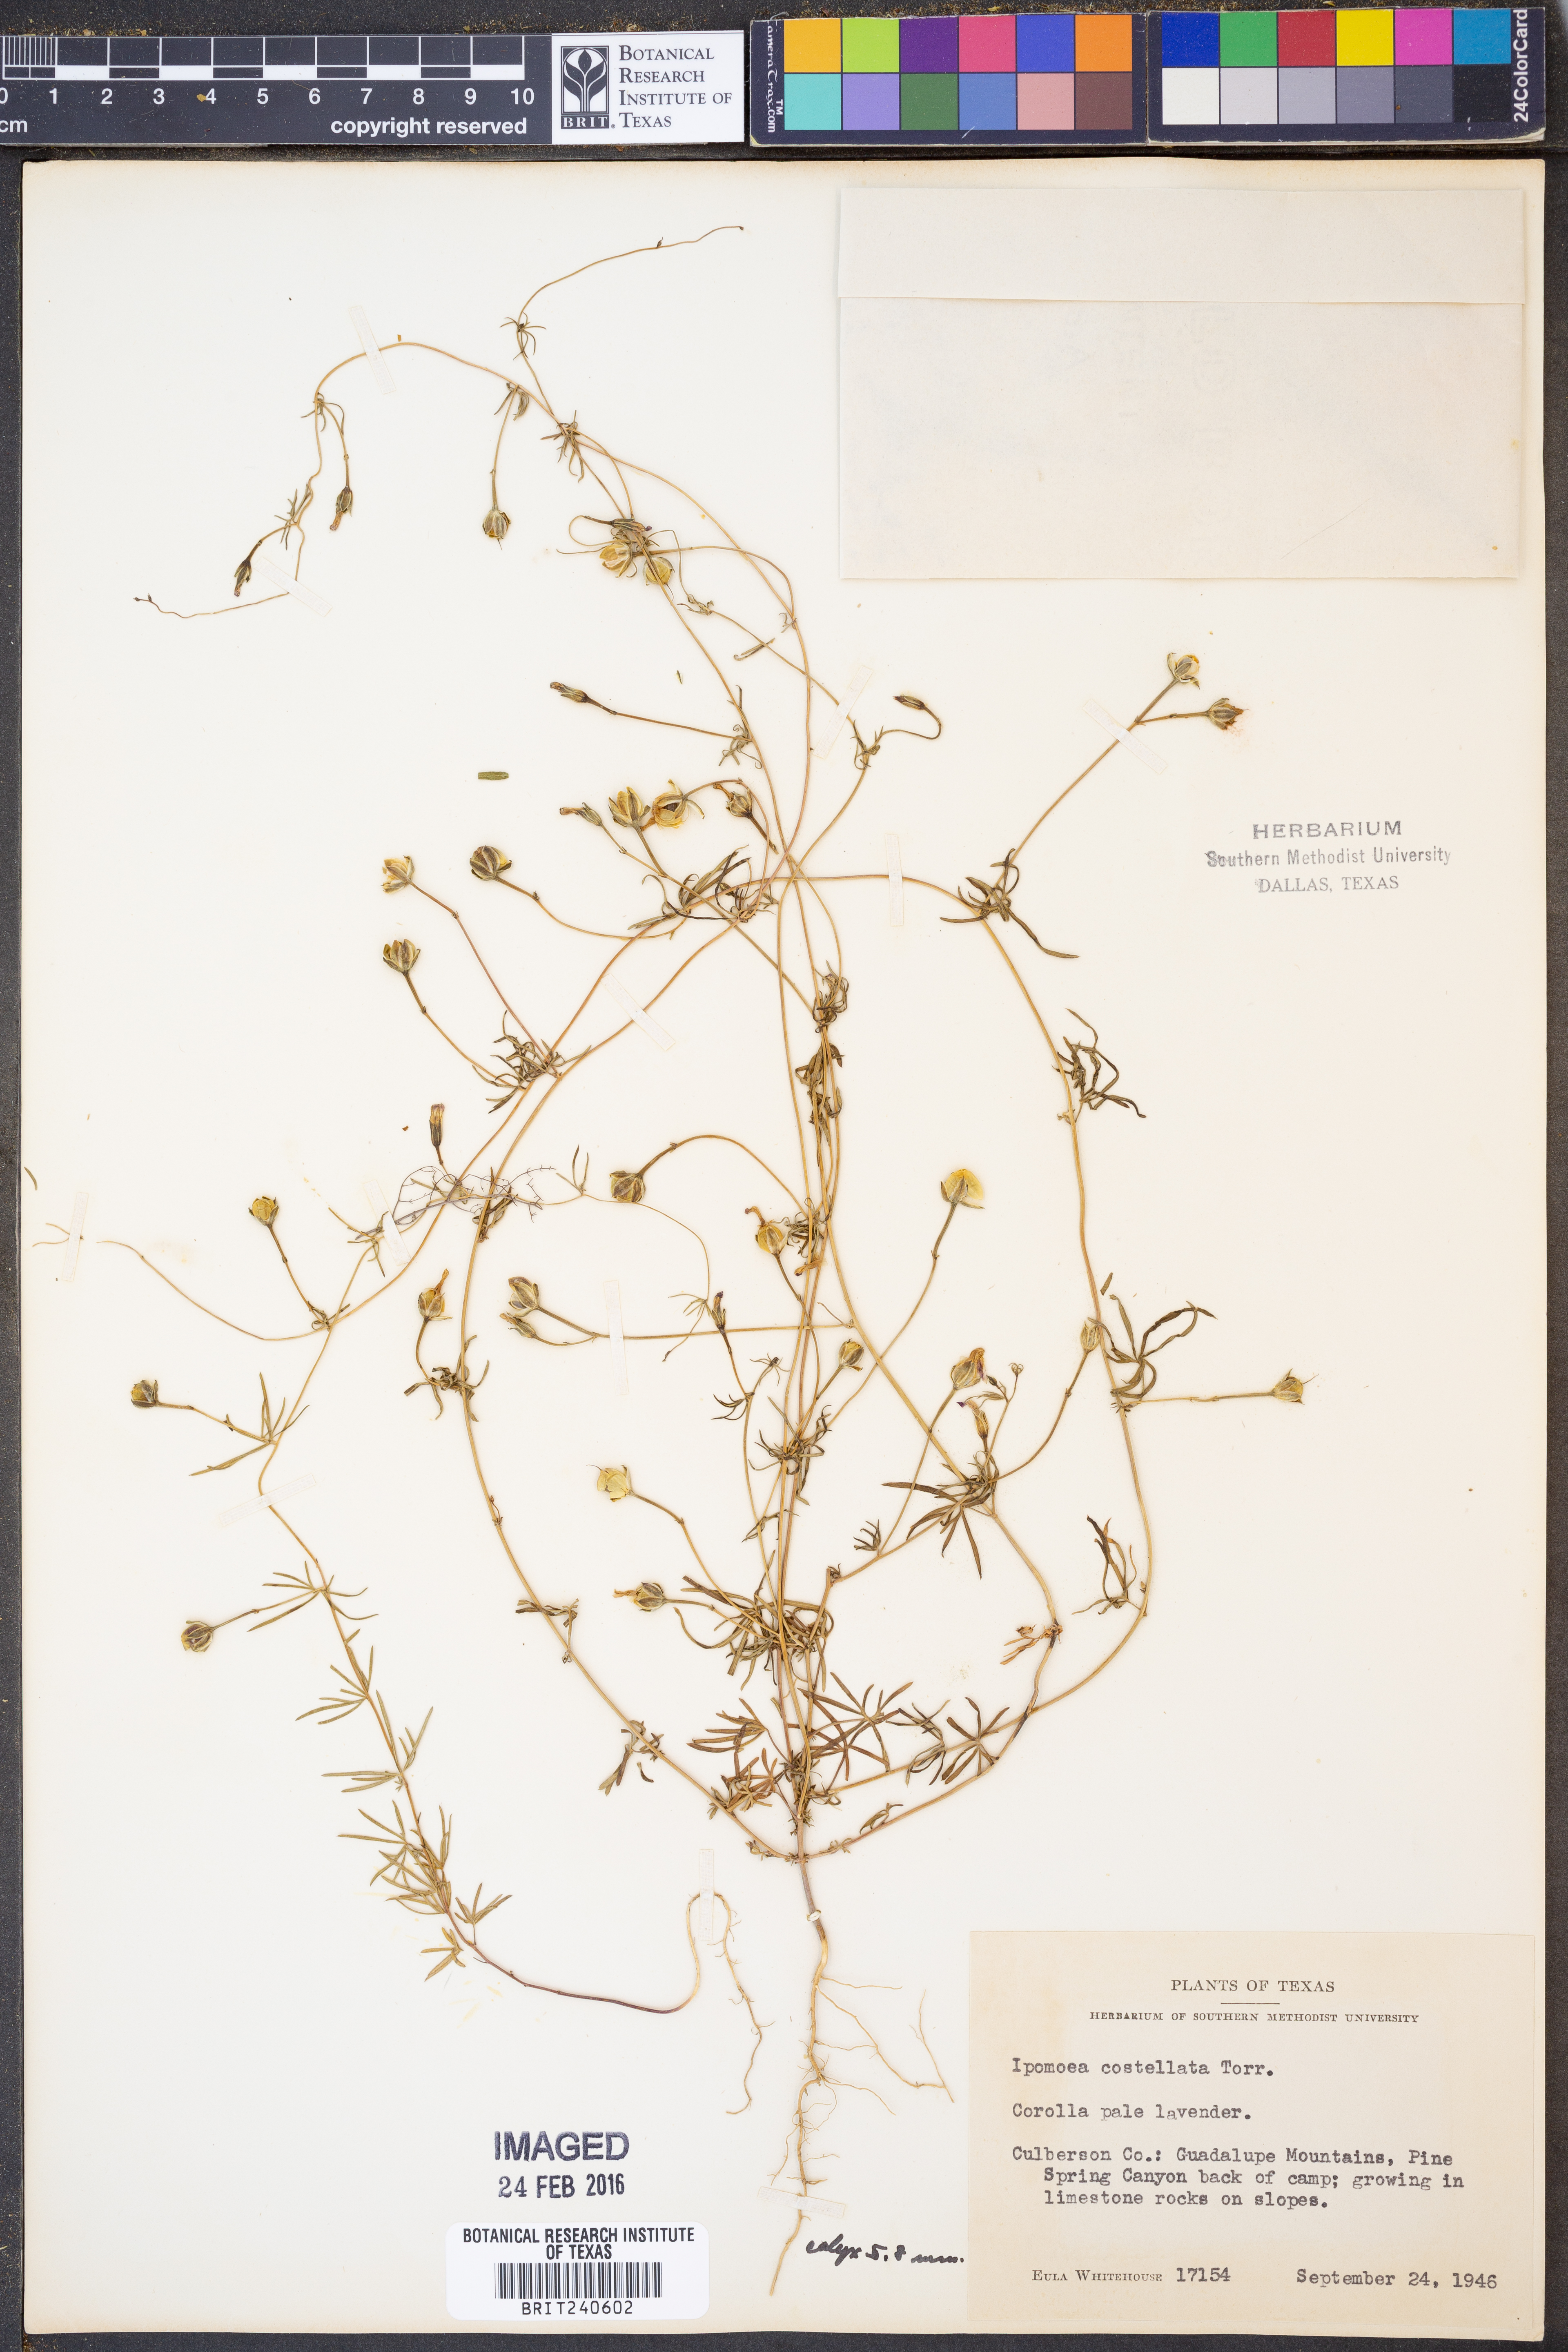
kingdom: Plantae
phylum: Tracheophyta
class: Magnoliopsida
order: Solanales
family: Convolvulaceae
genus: Ipomoea
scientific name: Ipomoea costellata
